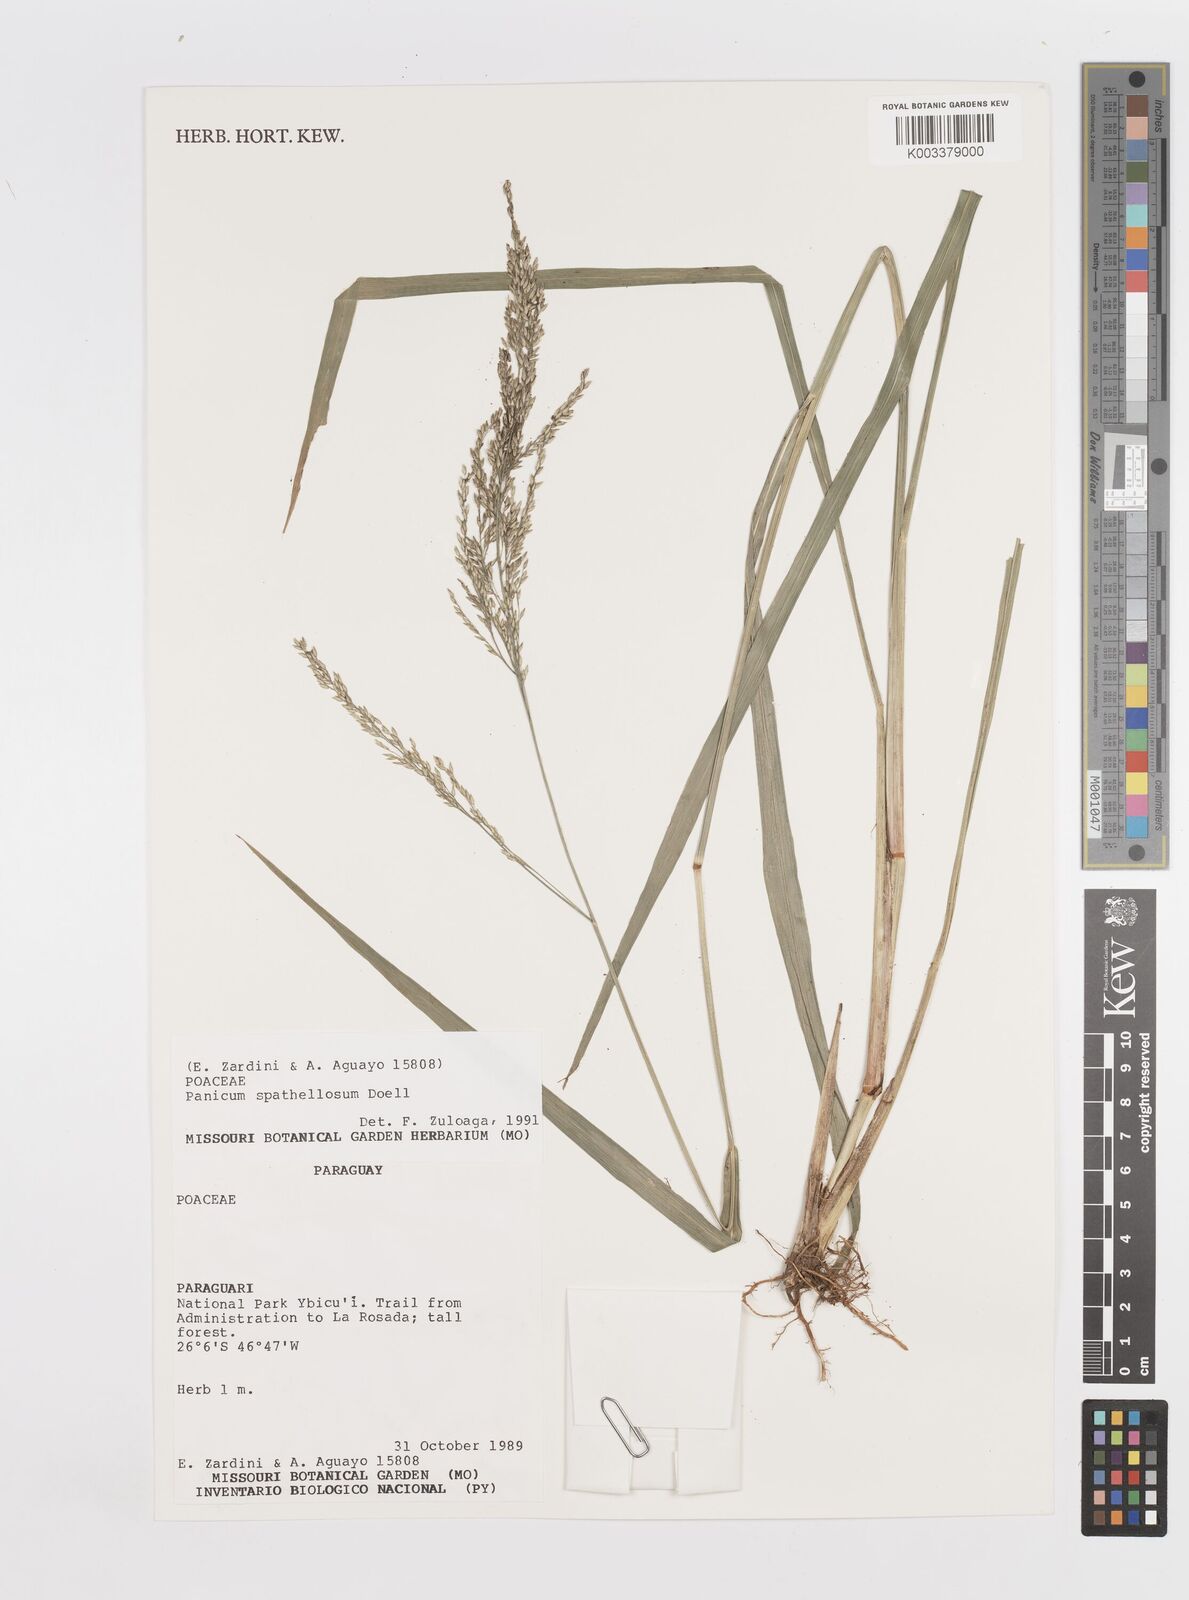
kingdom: Plantae
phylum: Tracheophyta
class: Liliopsida
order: Poales
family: Poaceae
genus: Steinchisma
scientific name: Steinchisma spathellosum
